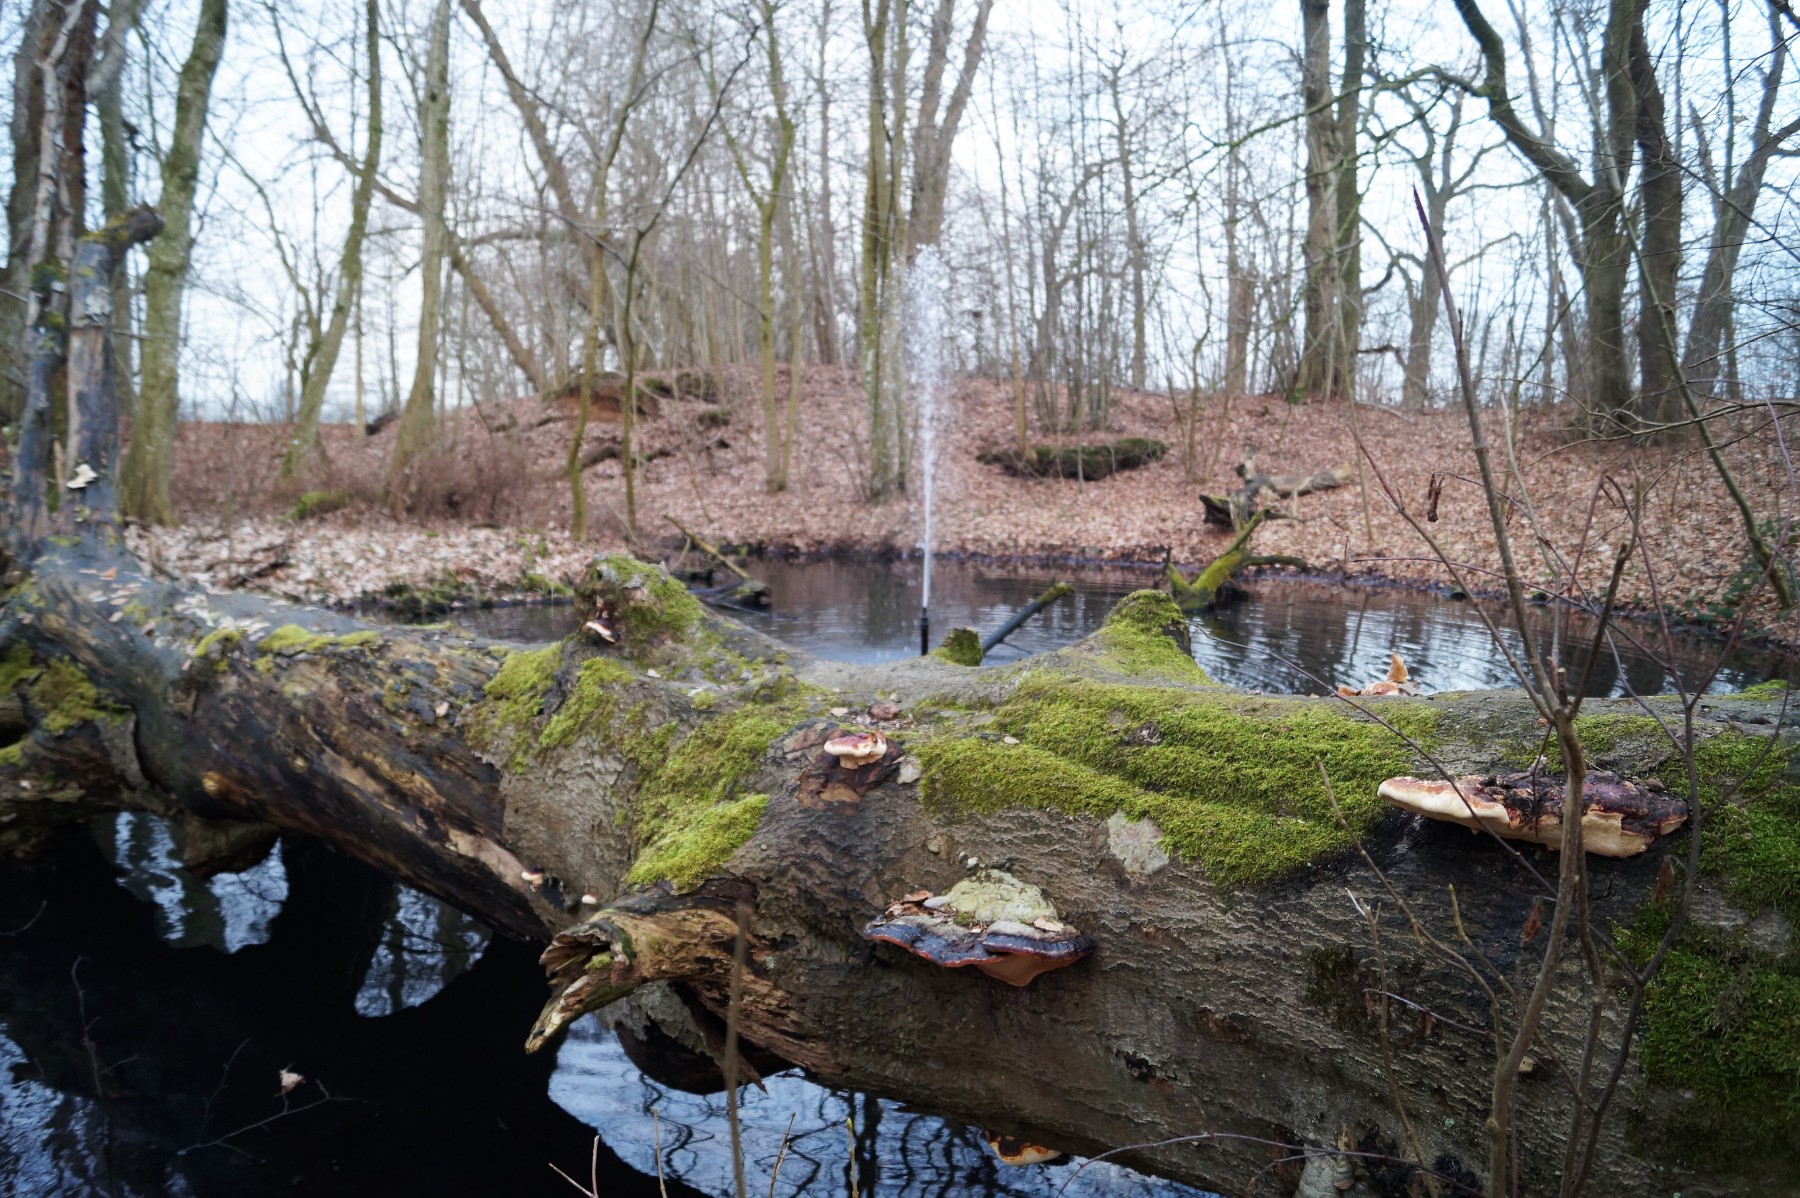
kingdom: Fungi
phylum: Basidiomycota
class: Agaricomycetes
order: Polyporales
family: Fomitopsidaceae
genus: Fomitopsis
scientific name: Fomitopsis pinicola
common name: randbæltet hovporesvamp
